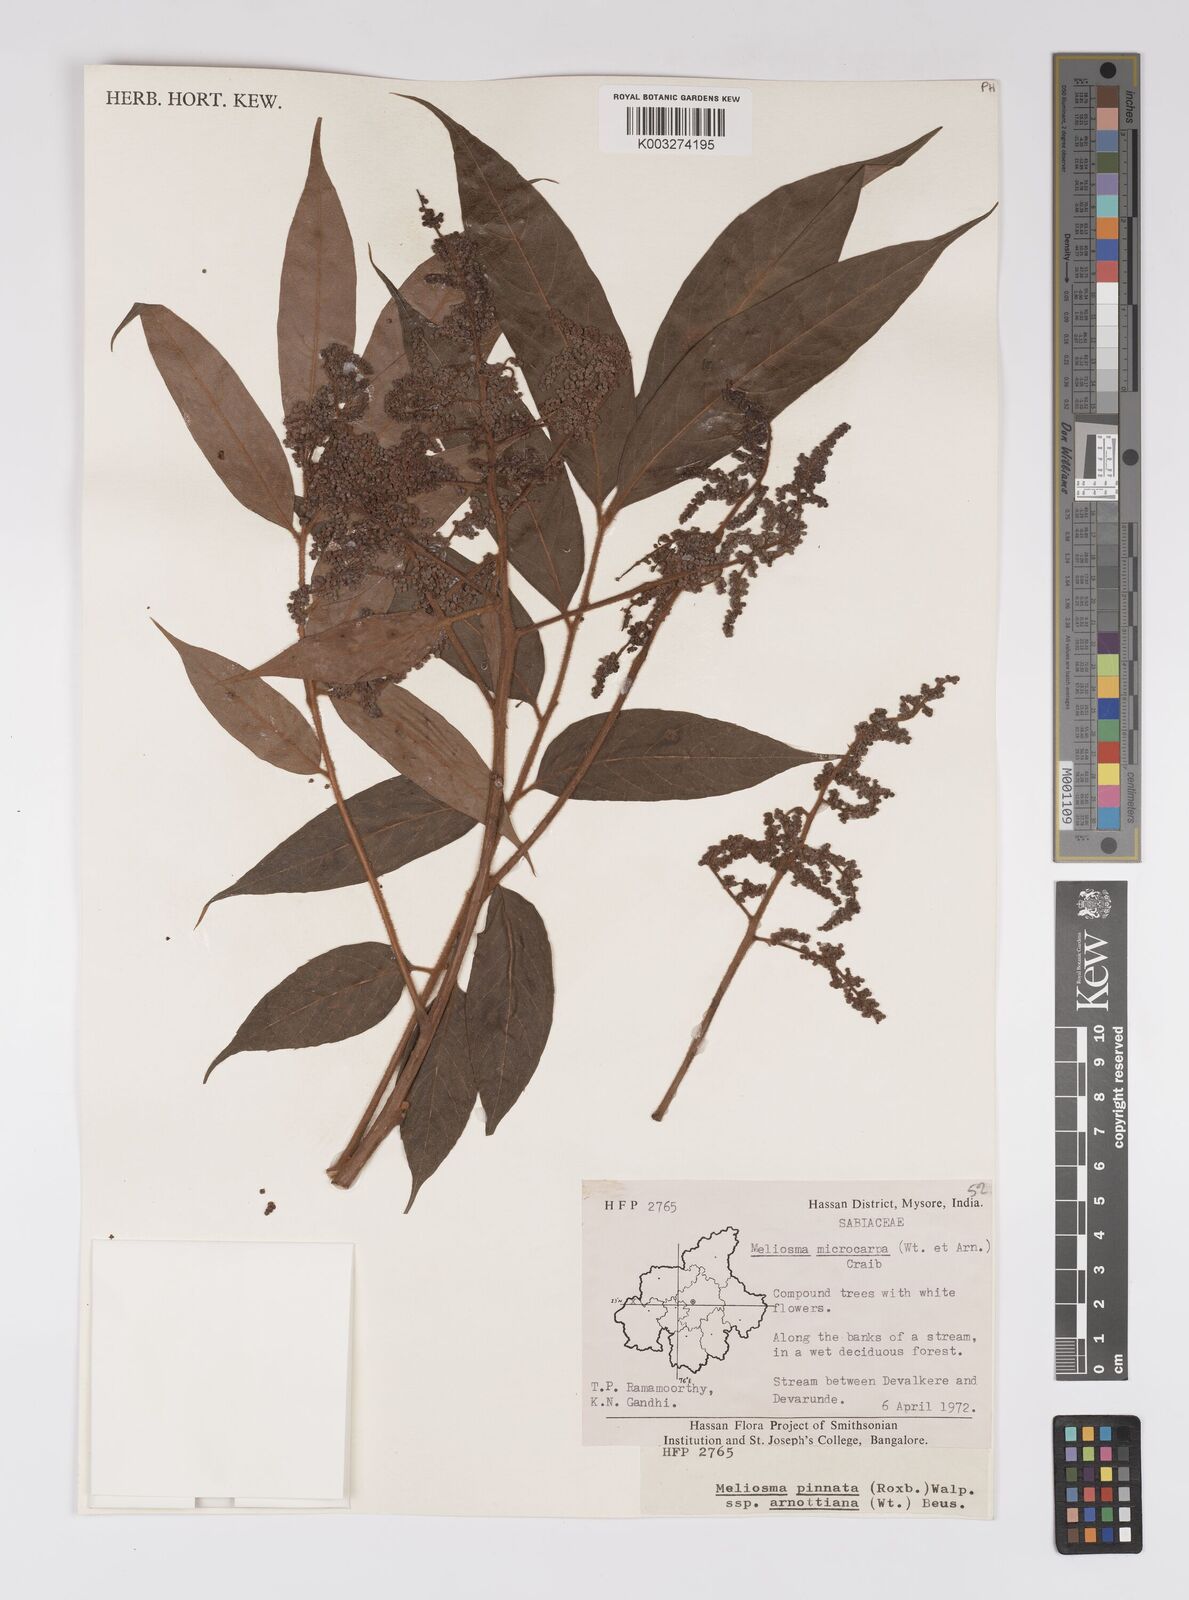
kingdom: Plantae
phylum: Tracheophyta
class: Magnoliopsida
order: Proteales
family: Sabiaceae
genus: Meliosma
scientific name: Meliosma rhoifolia
